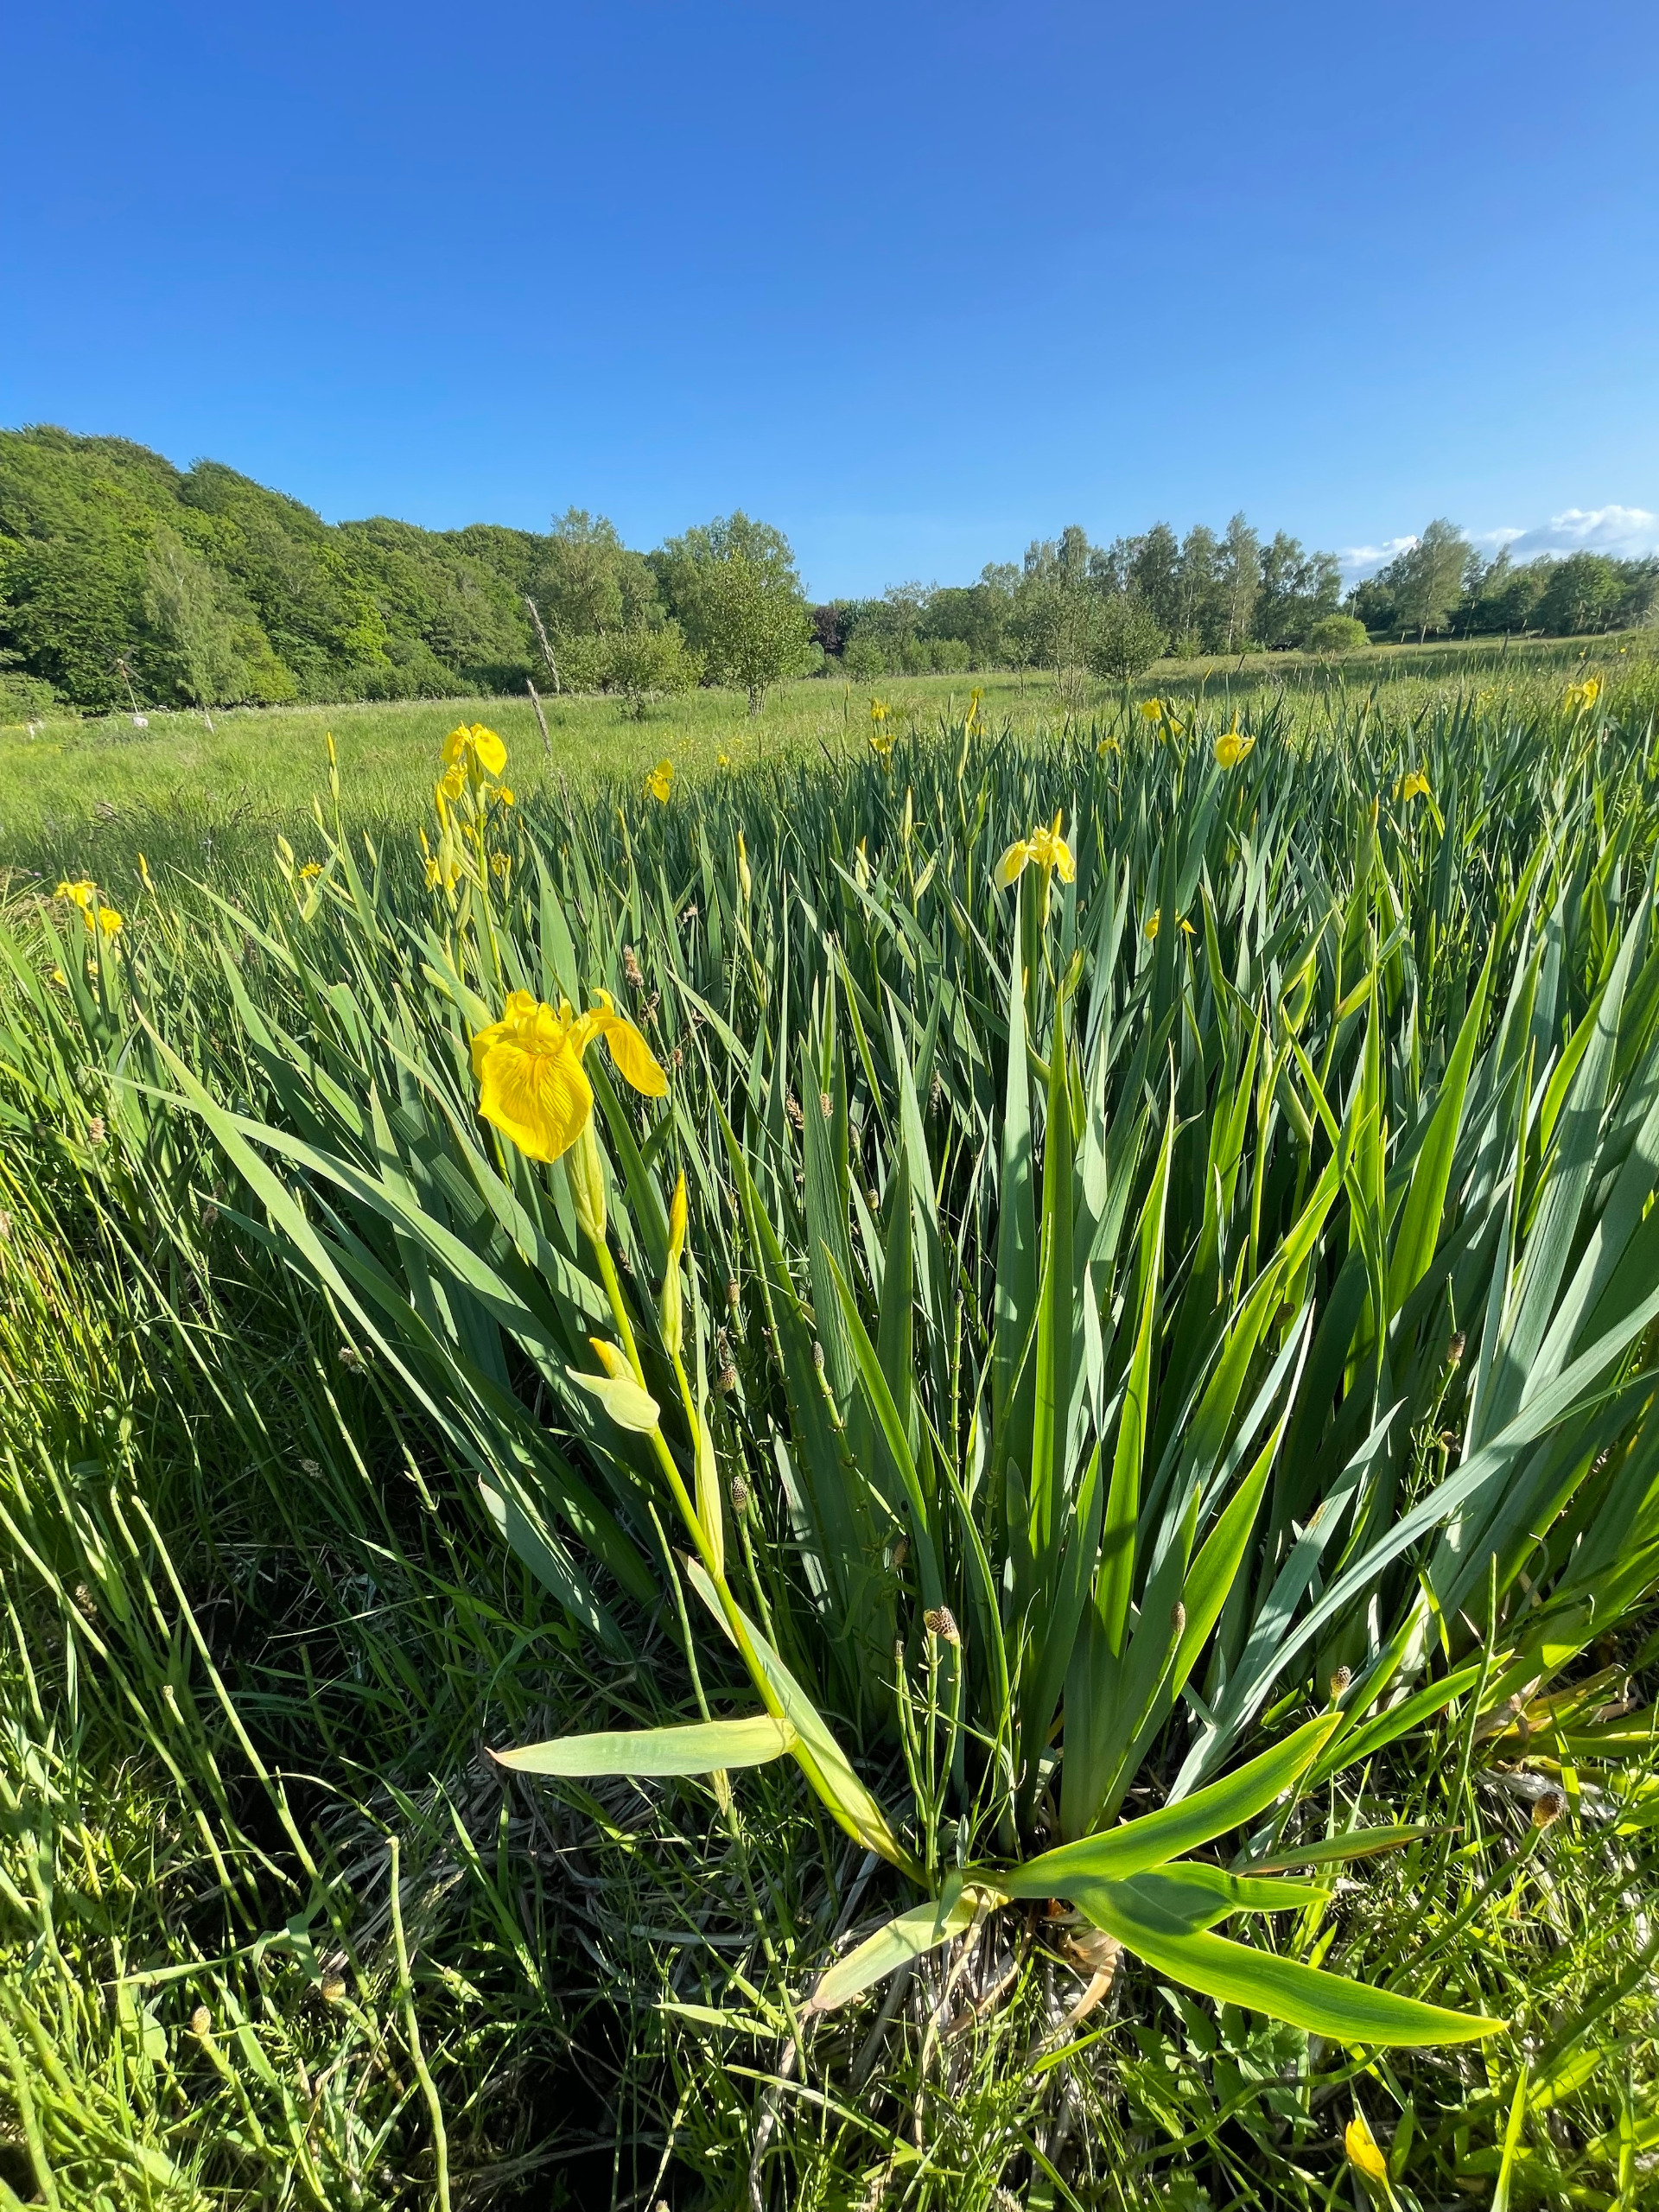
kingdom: Plantae
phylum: Tracheophyta
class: Liliopsida
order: Asparagales
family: Iridaceae
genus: Iris
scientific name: Iris pseudacorus
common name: Gul iris
